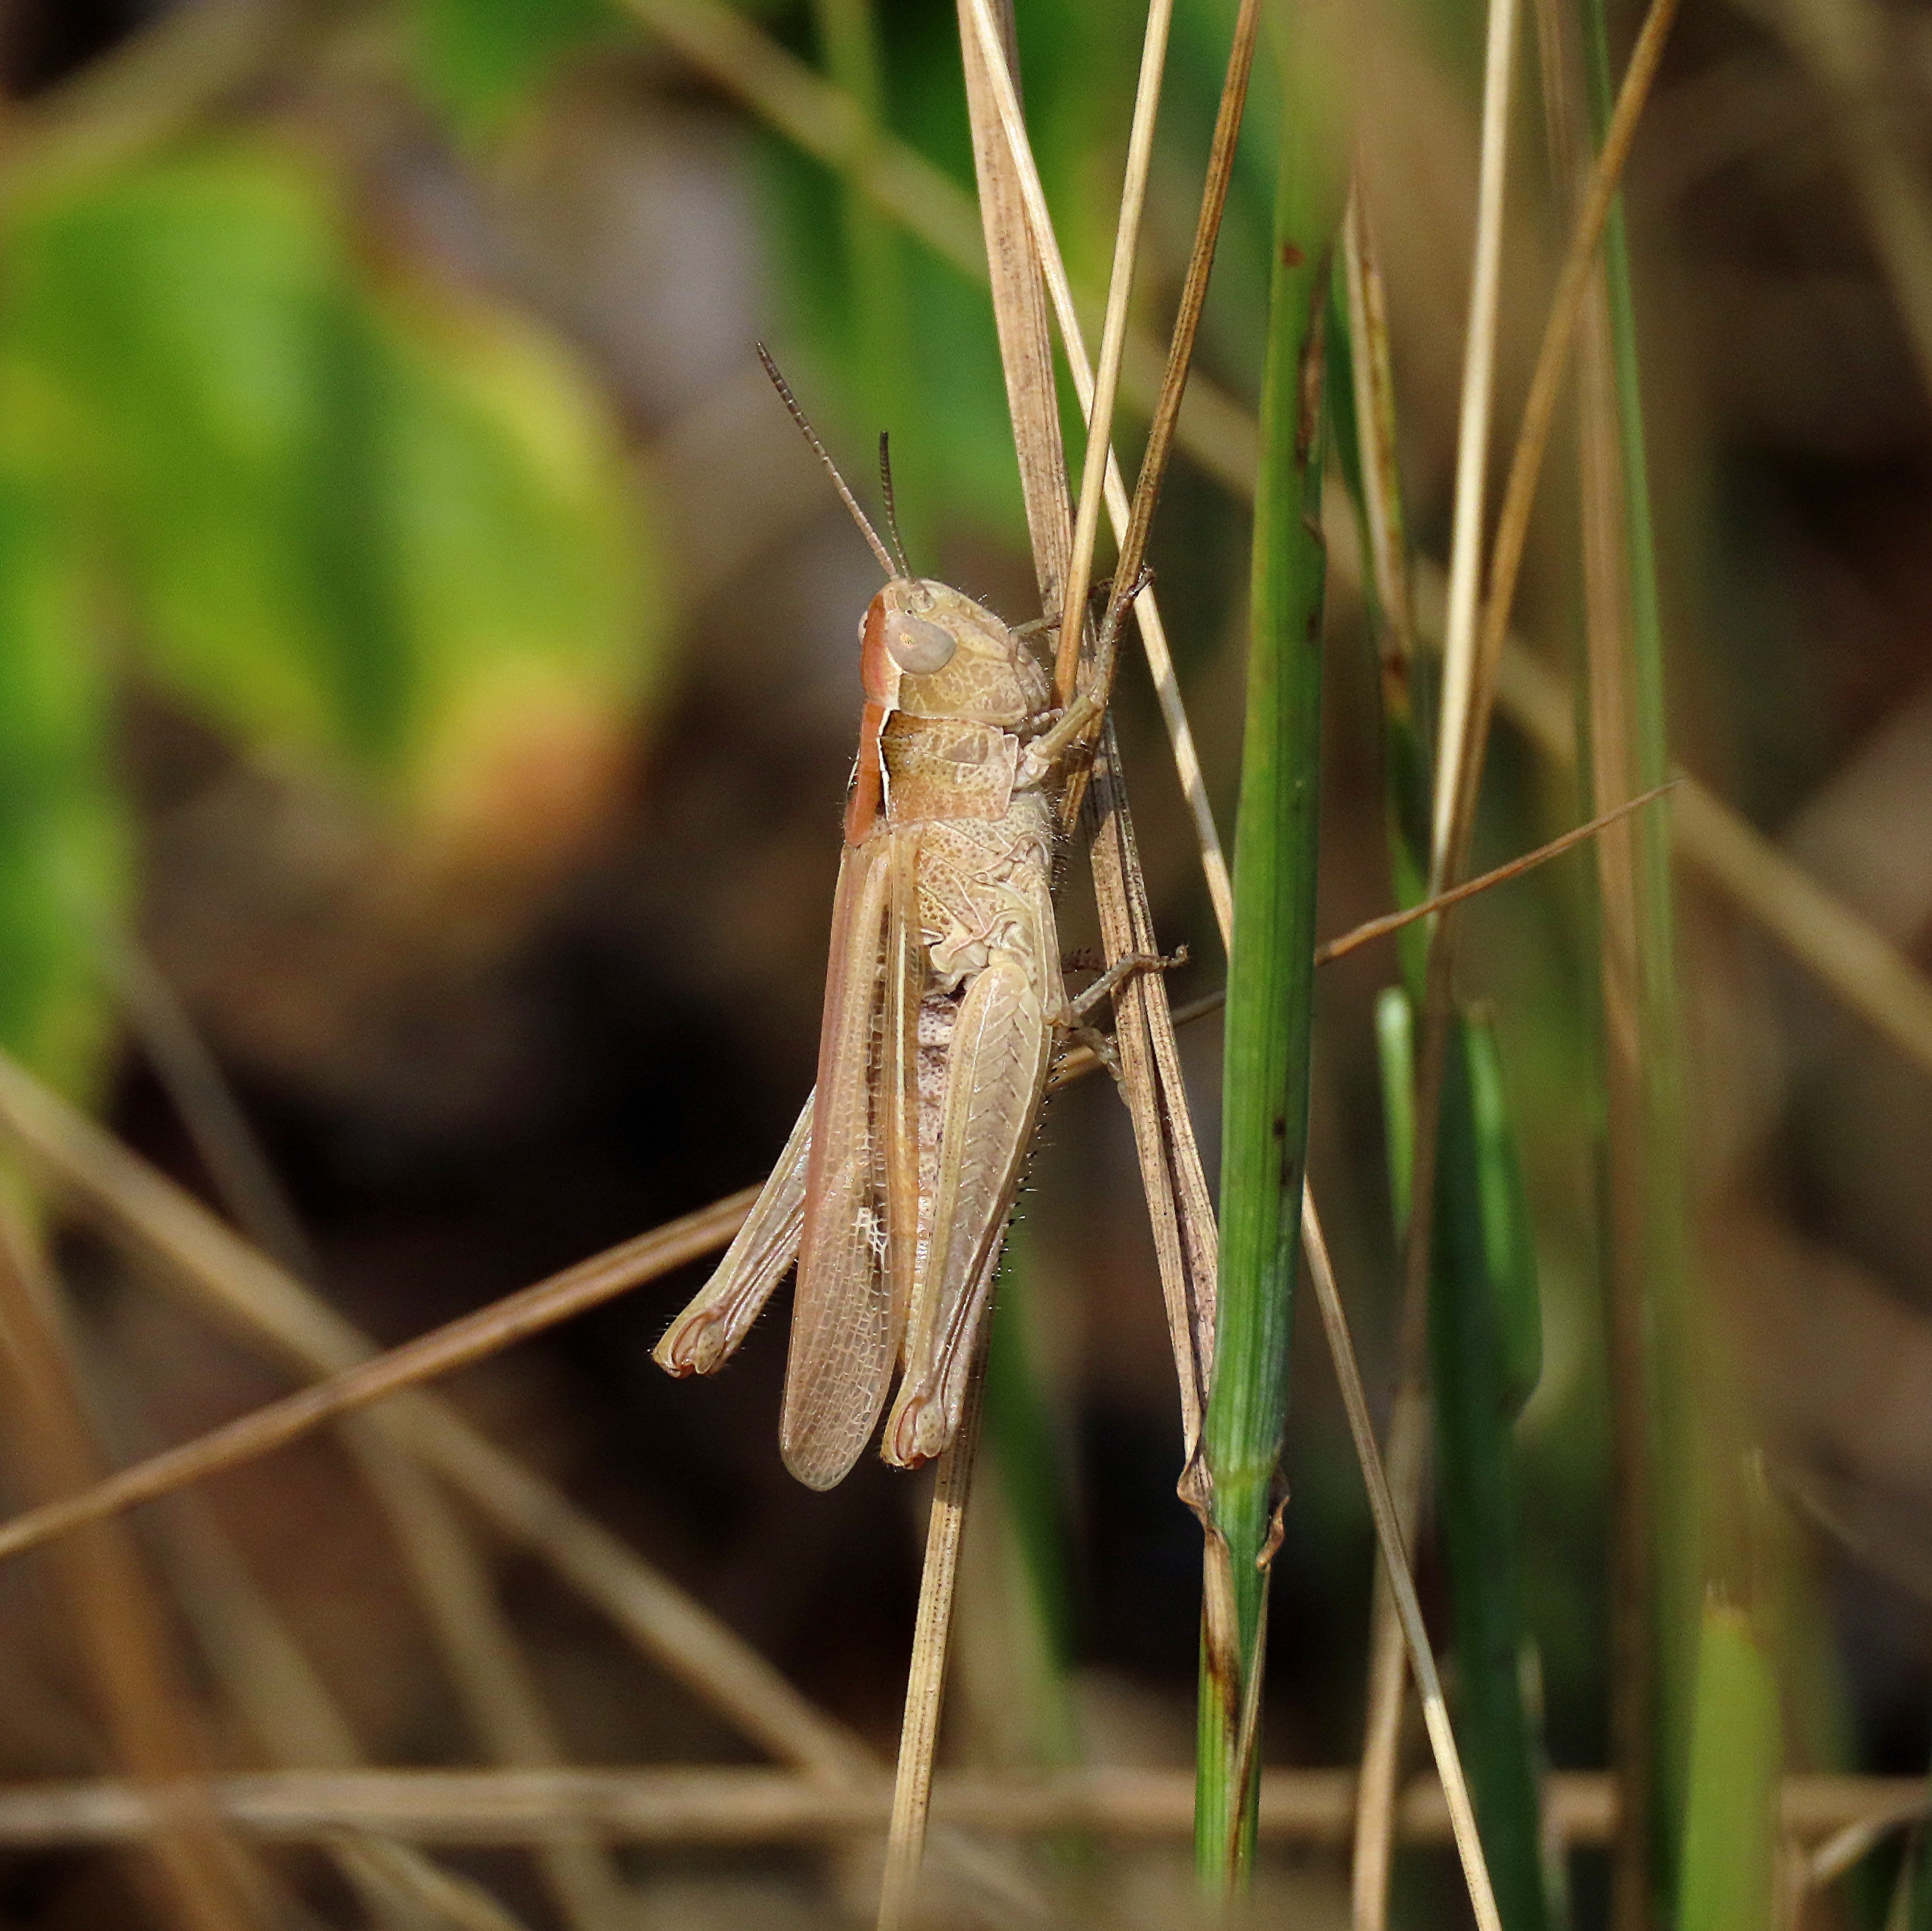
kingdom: Animalia
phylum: Arthropoda
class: Insecta
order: Orthoptera
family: Acrididae
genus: Chorthippus
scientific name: Chorthippus brunneus
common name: Almindelig markgræshoppe
